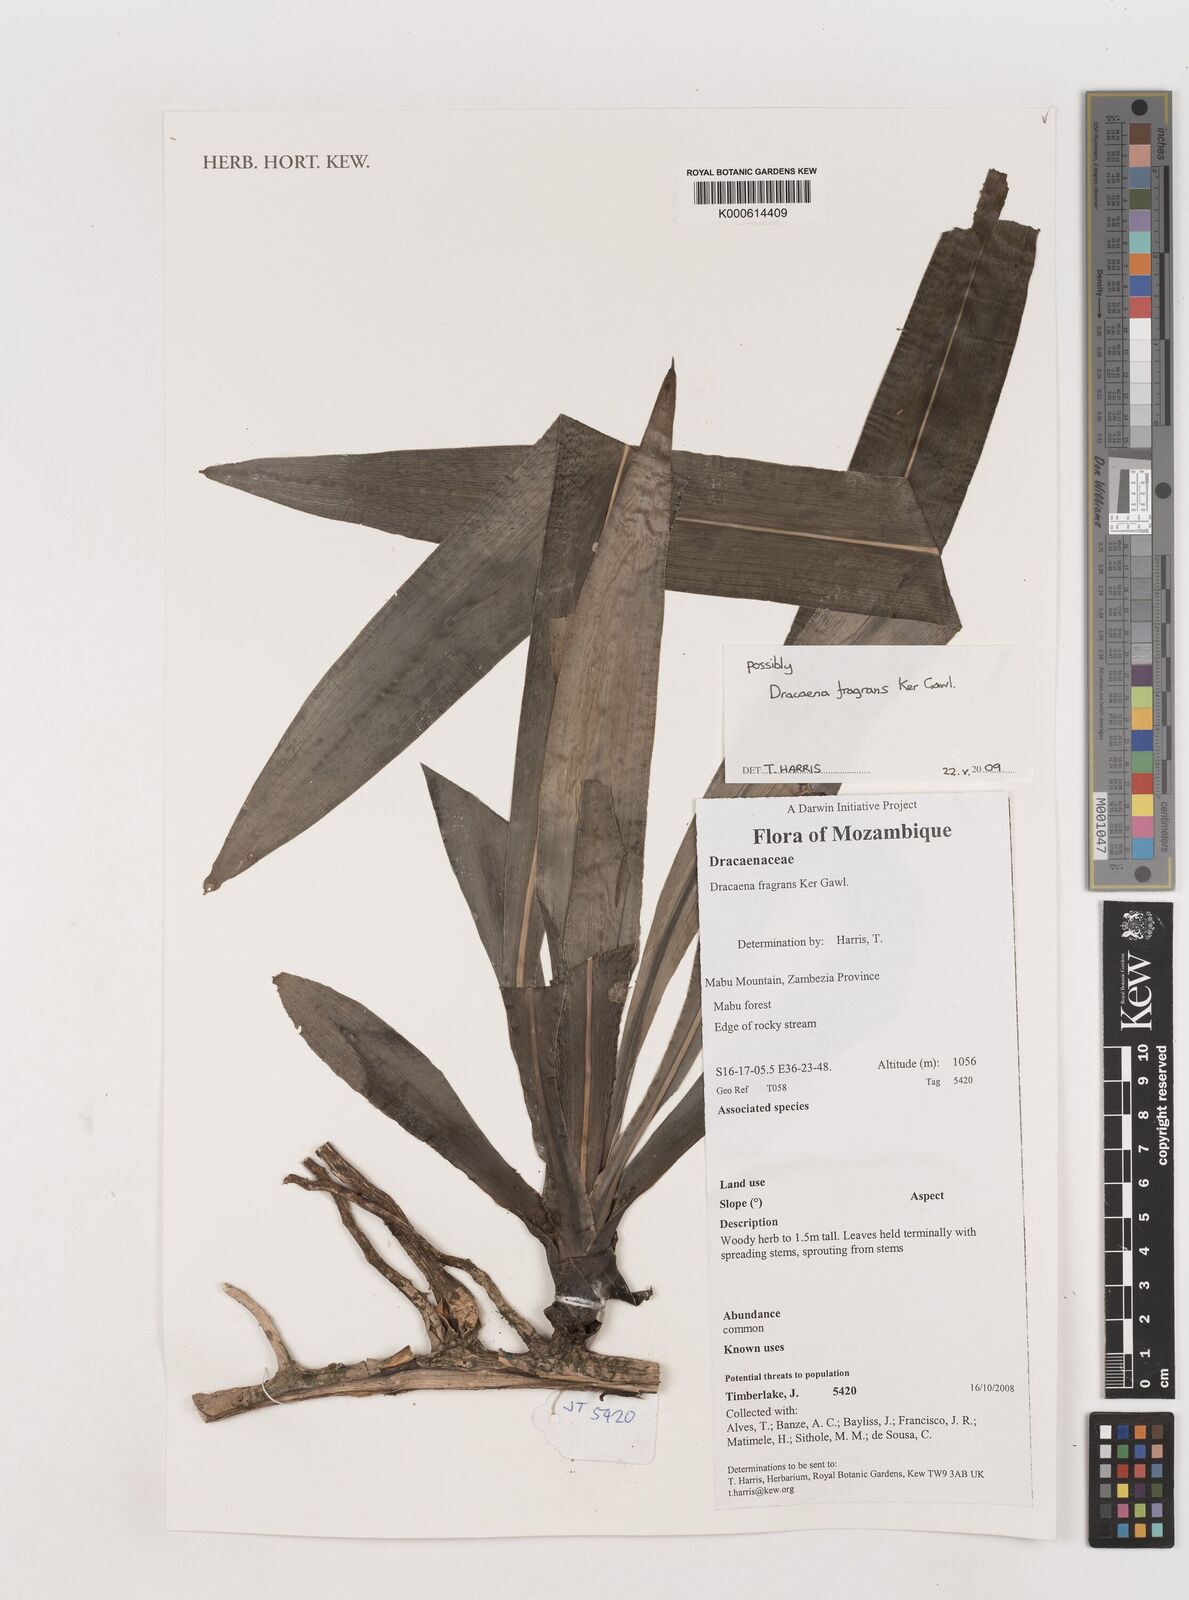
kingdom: Plantae
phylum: Tracheophyta
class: Liliopsida
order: Asparagales
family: Asparagaceae
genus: Dracaena
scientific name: Dracaena fragrans
